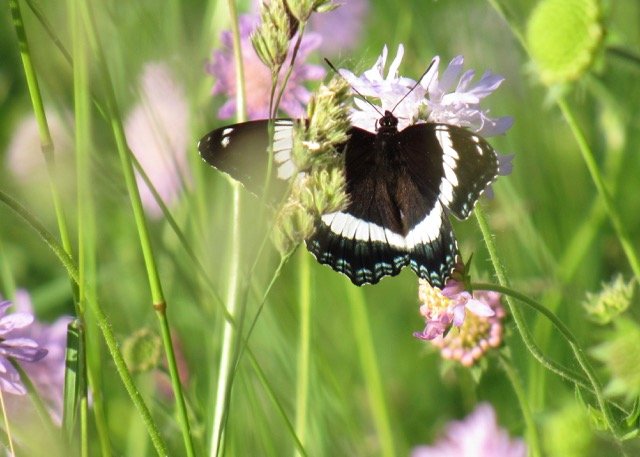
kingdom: Animalia
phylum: Arthropoda
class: Insecta
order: Lepidoptera
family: Nymphalidae
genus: Limenitis
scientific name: Limenitis
